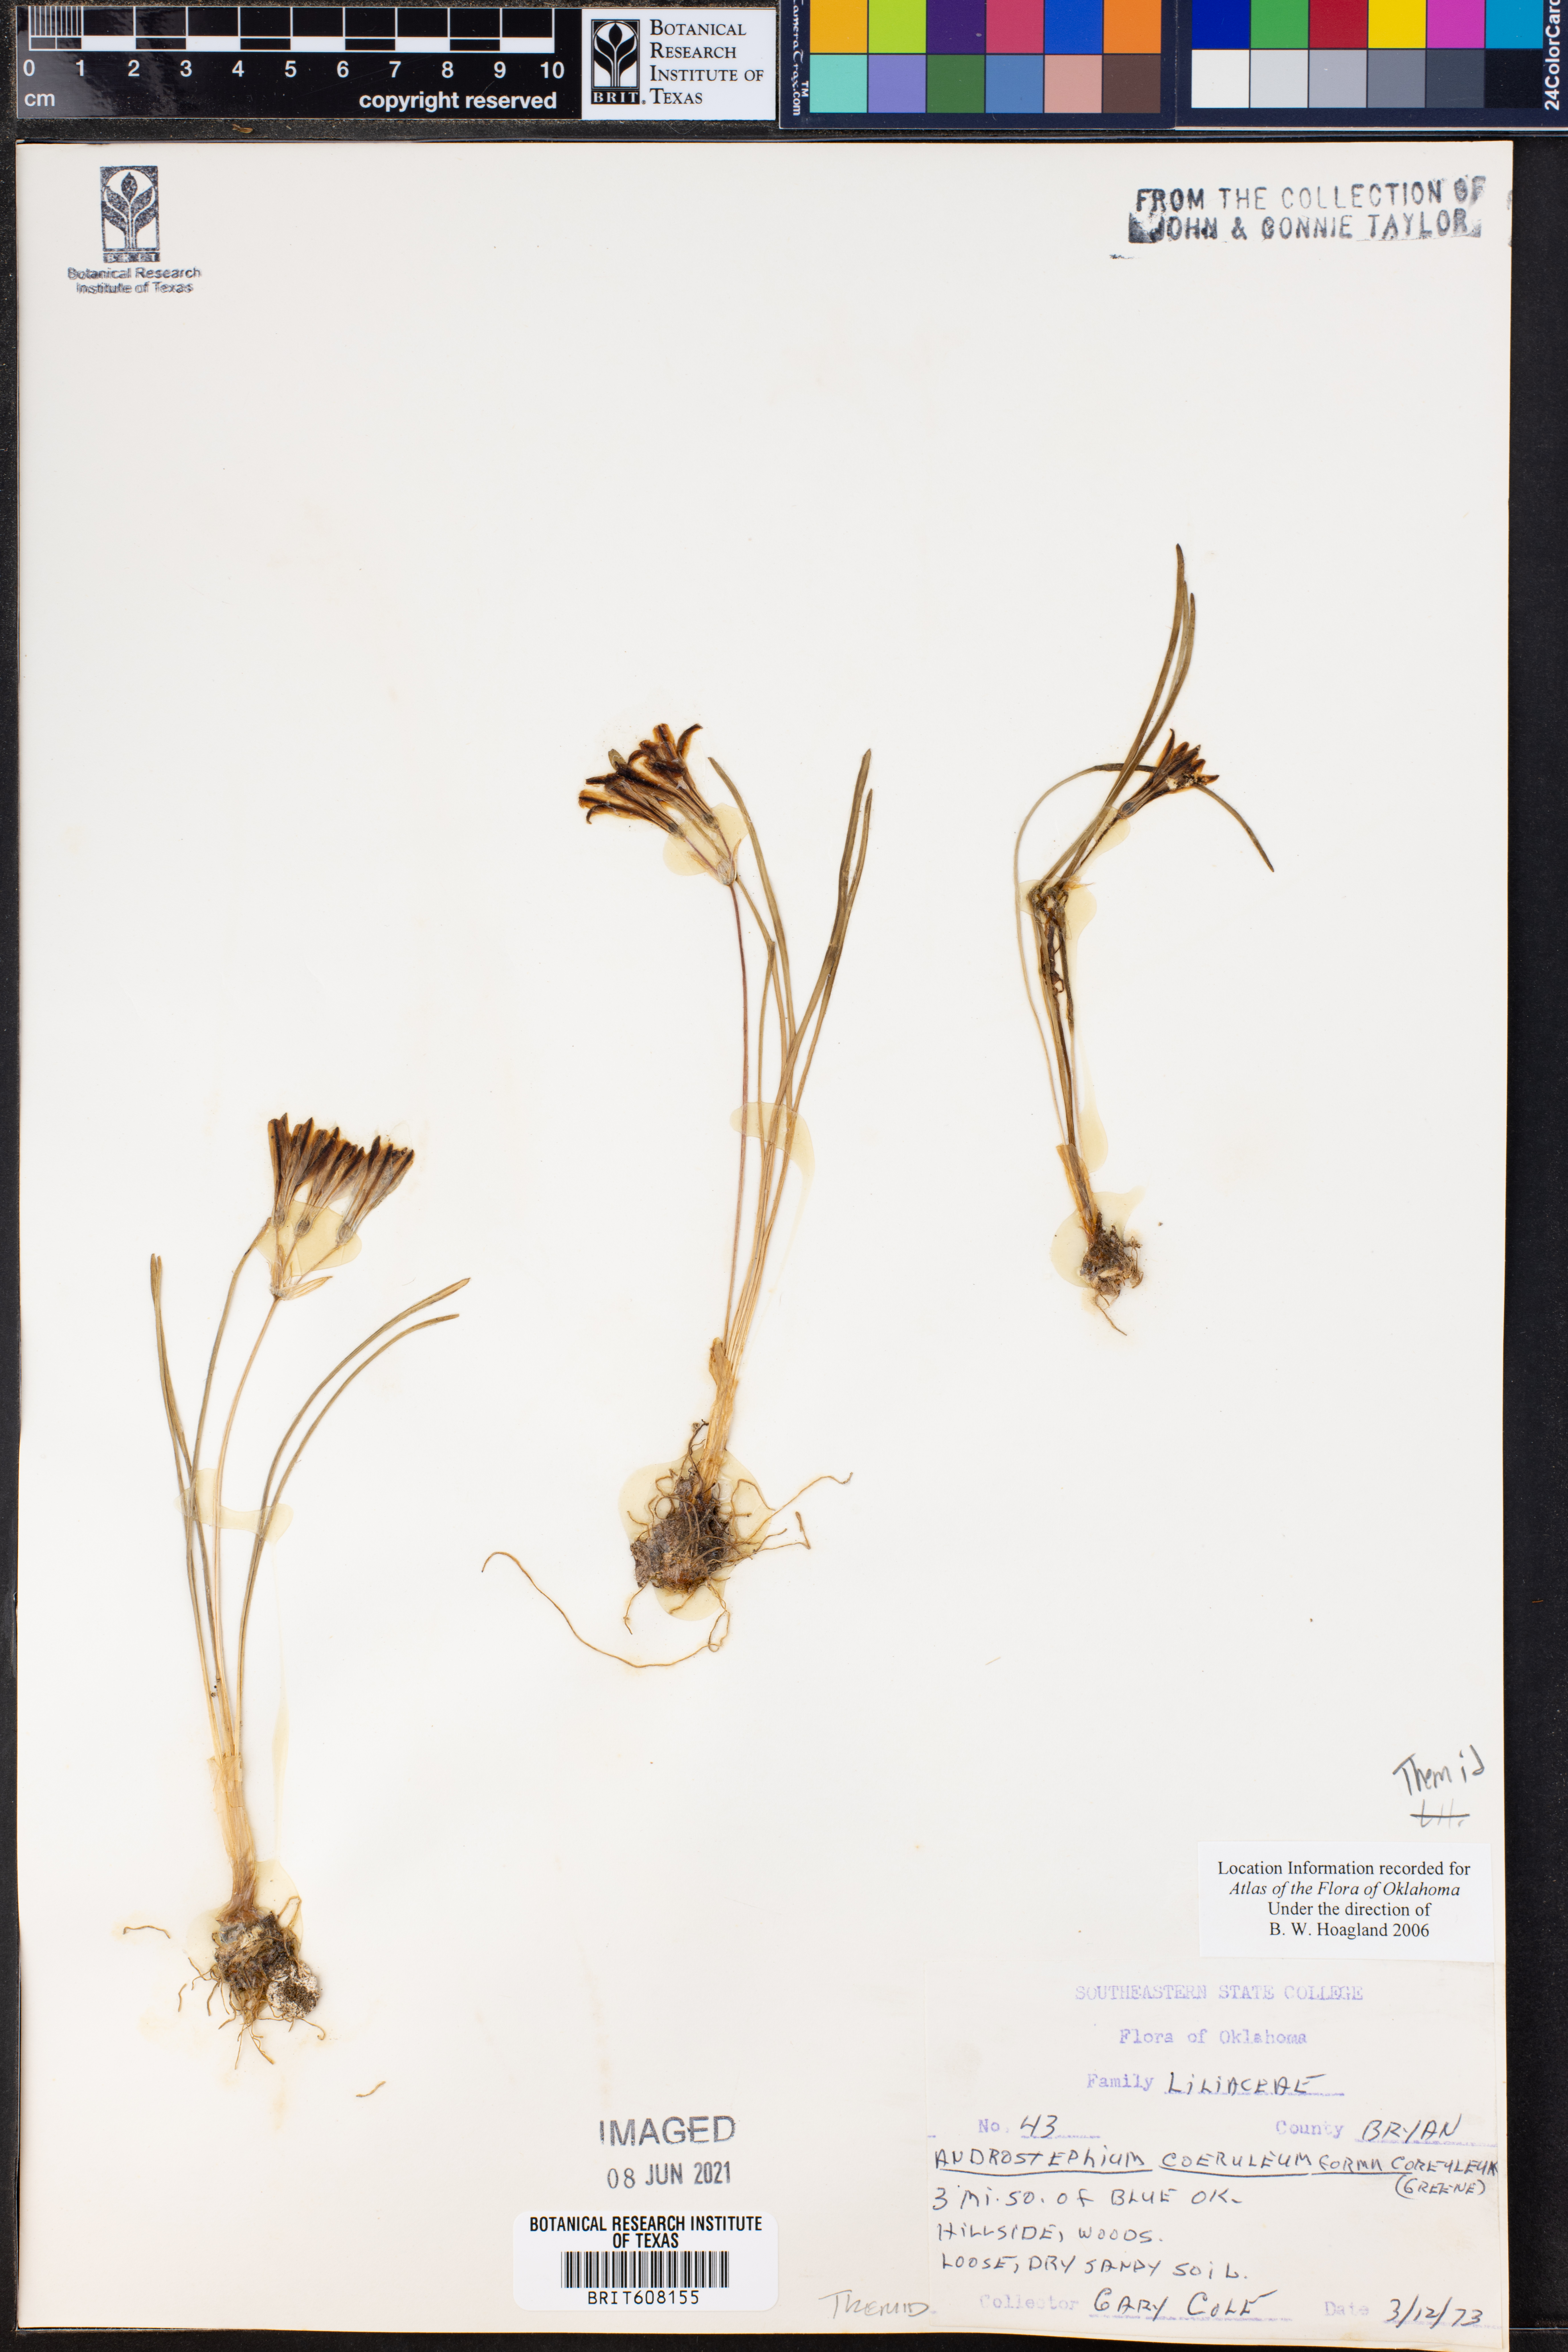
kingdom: Plantae
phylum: Tracheophyta
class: Liliopsida
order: Asparagales
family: Asparagaceae
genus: Androstephium
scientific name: Androstephium coeruleum
